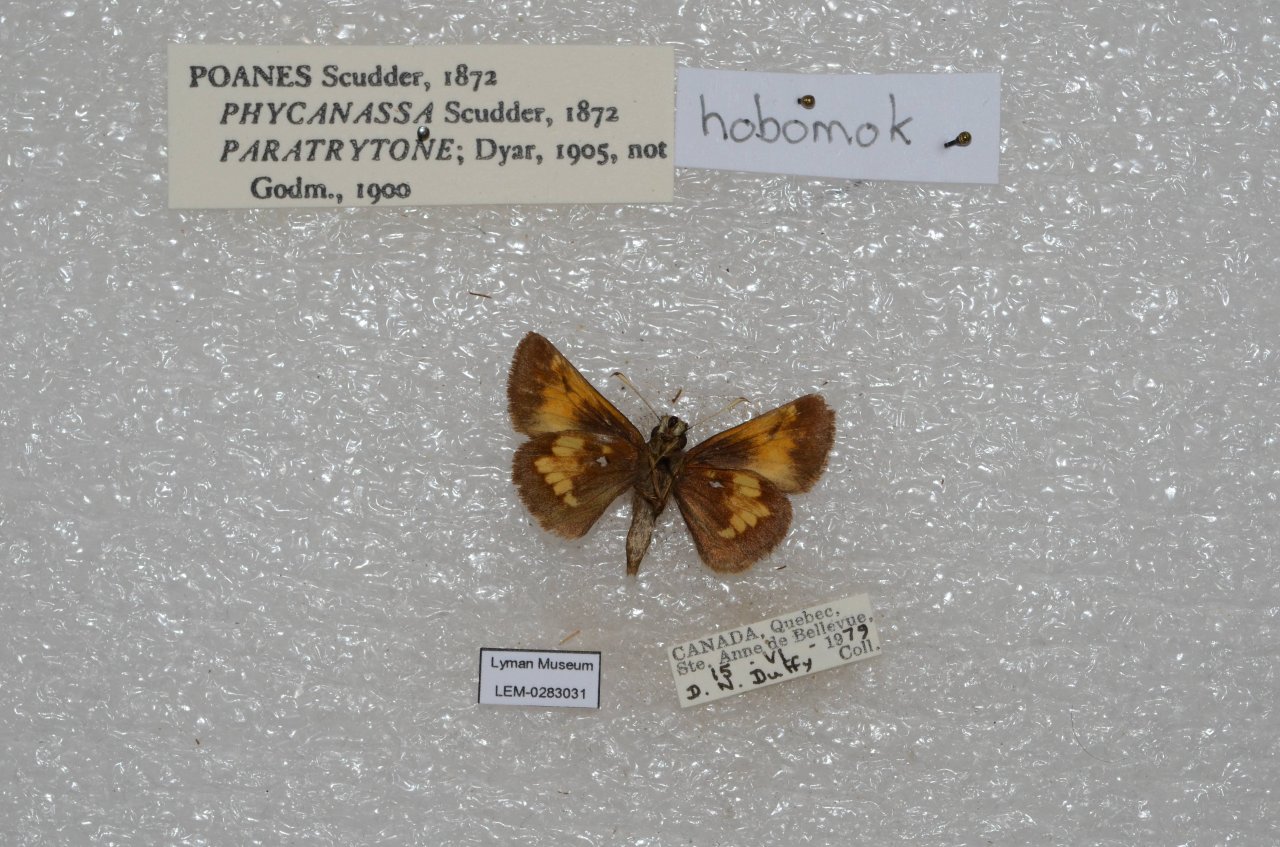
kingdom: Animalia
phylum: Arthropoda
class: Insecta
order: Lepidoptera
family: Hesperiidae
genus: Lon
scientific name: Lon hobomok
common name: Hobomok Skipper
